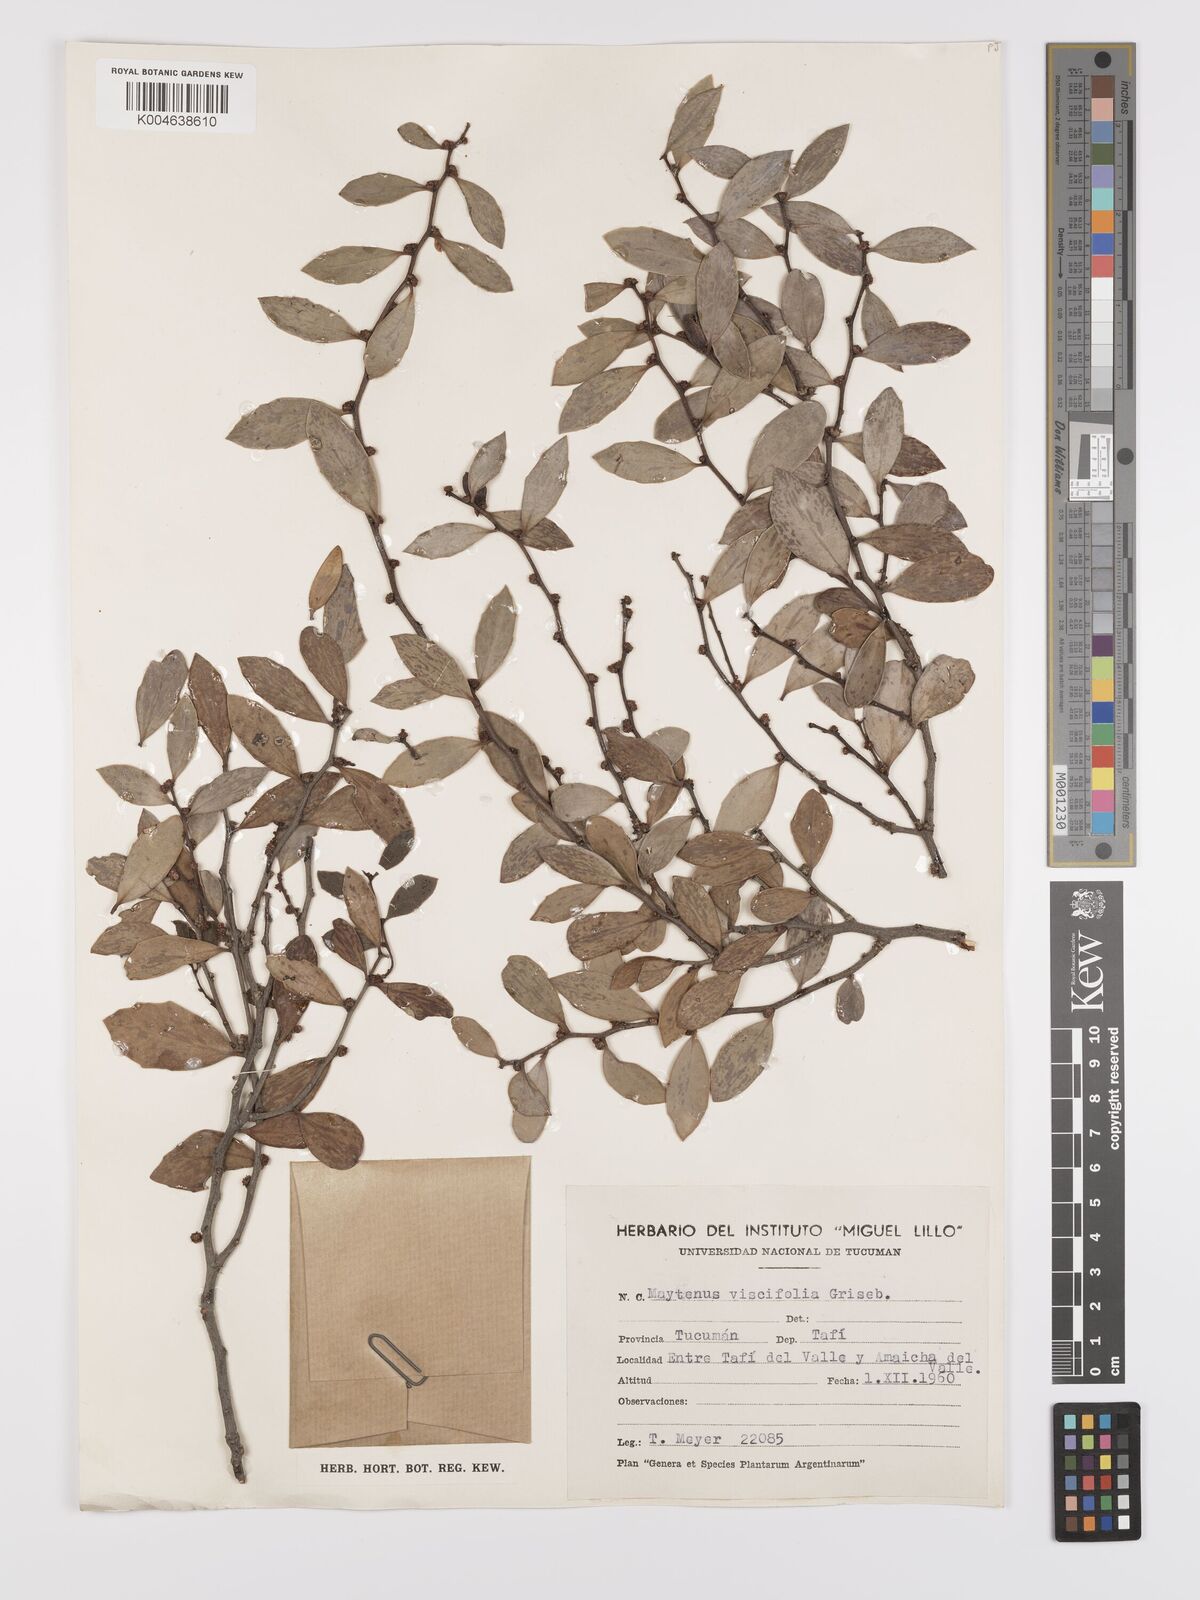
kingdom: Plantae
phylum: Tracheophyta
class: Magnoliopsida
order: Celastrales
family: Celastraceae
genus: Tricerma
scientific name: Tricerma viscifolium
